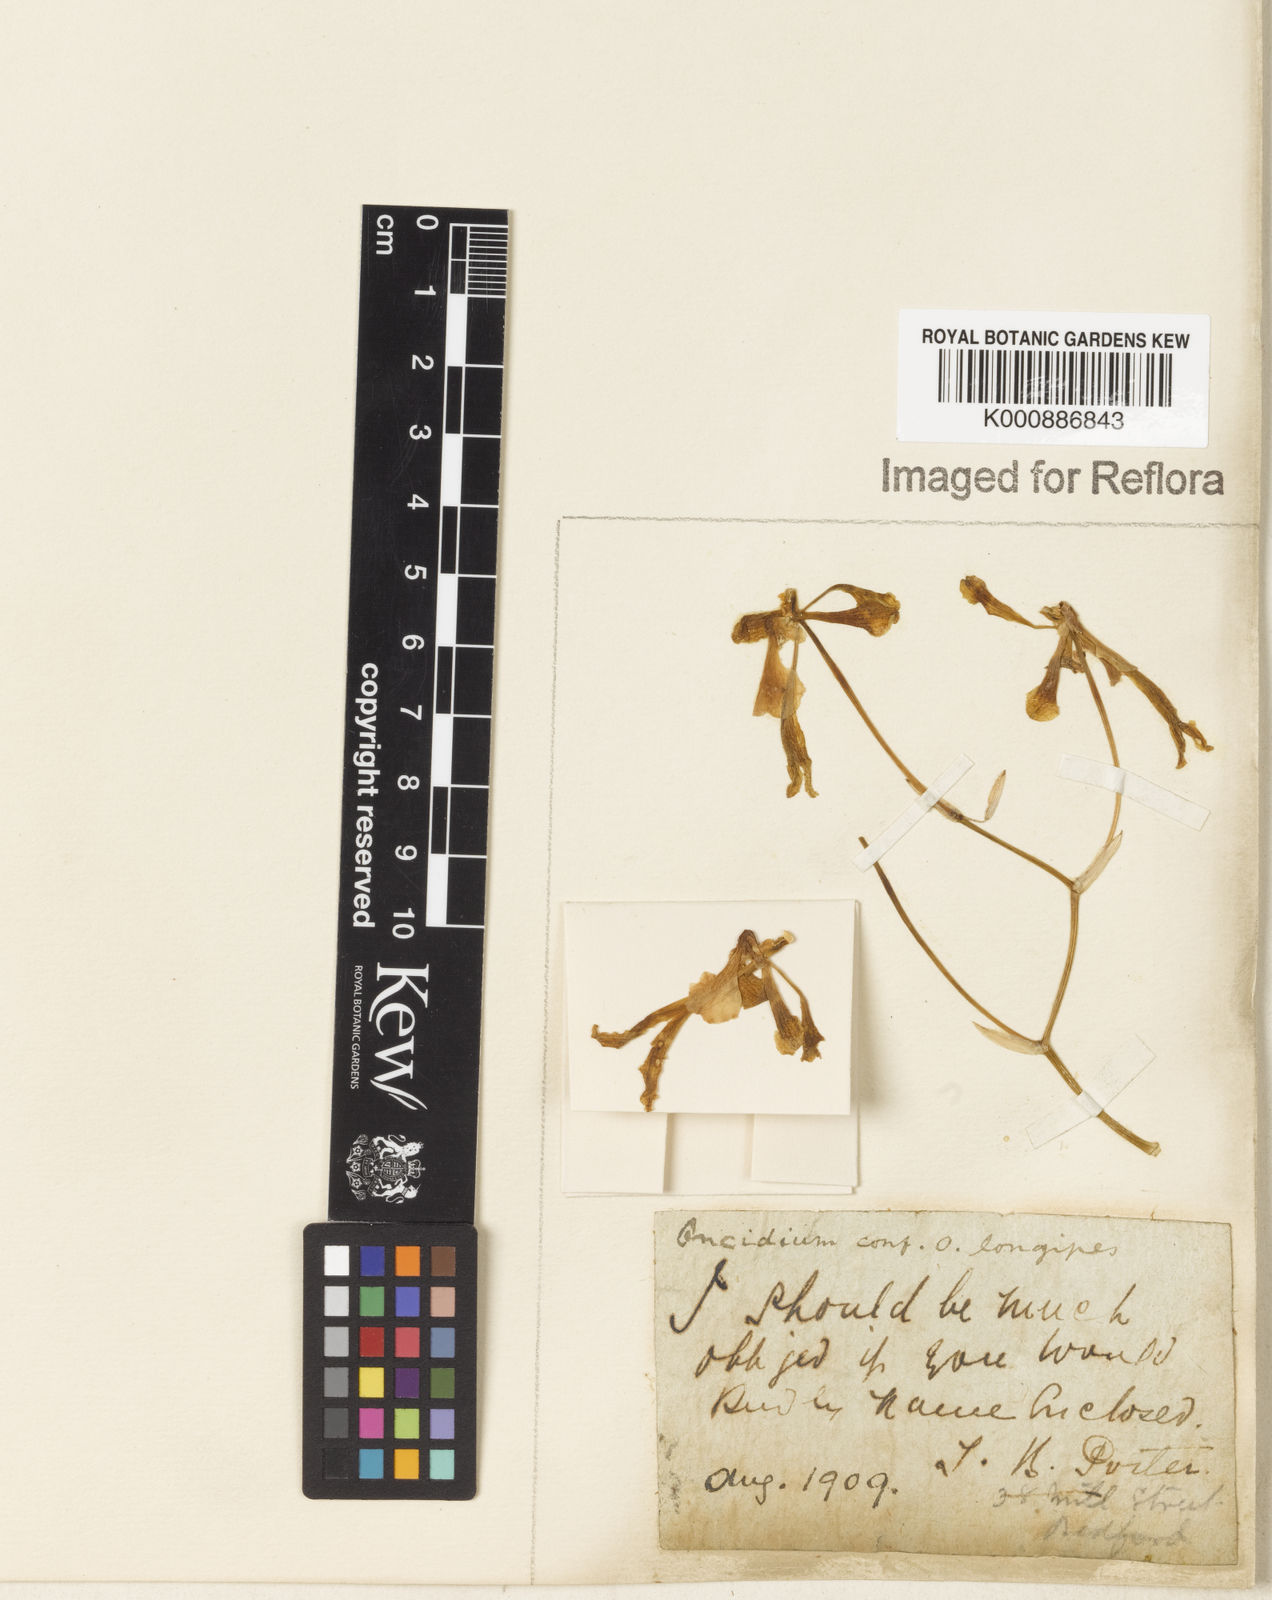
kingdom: Plantae
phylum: Tracheophyta
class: Liliopsida
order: Asparagales
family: Orchidaceae
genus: Gomesa
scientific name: Gomesa uniflora
